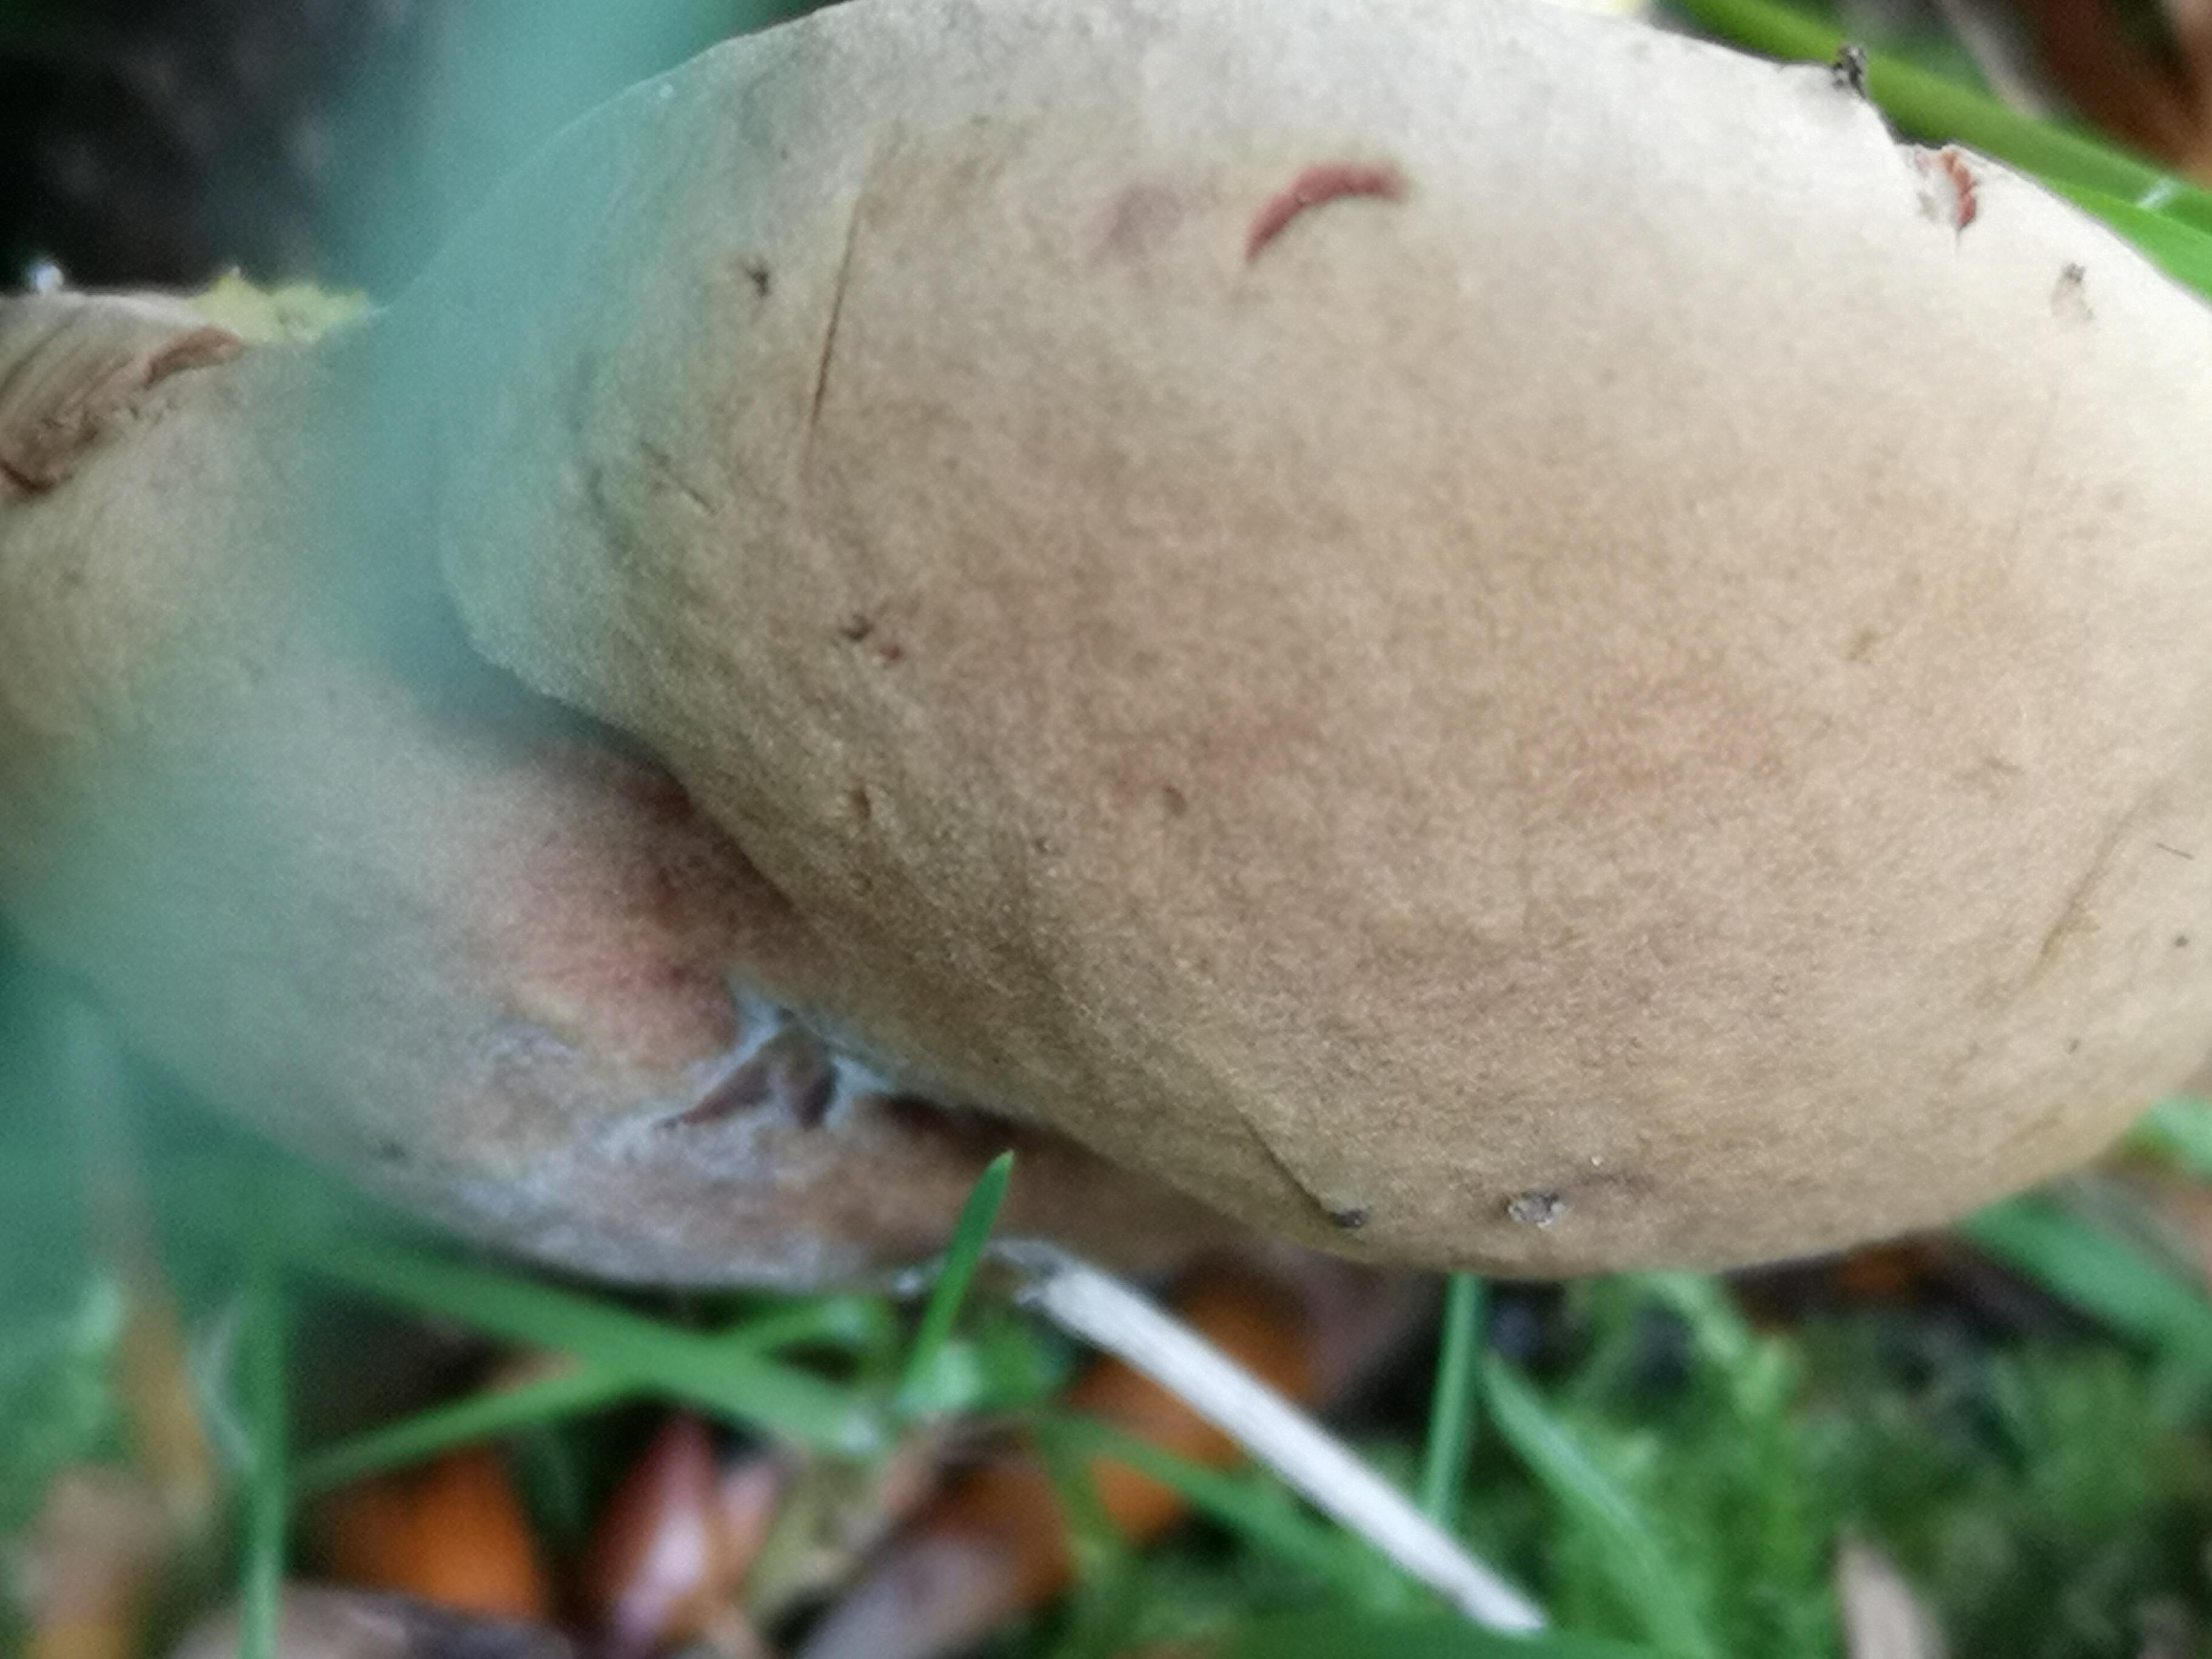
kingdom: Fungi
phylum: Basidiomycota
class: Agaricomycetes
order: Boletales
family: Boletaceae
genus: Xerocomus
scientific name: Xerocomus subtomentosus
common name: filtet rørhat
